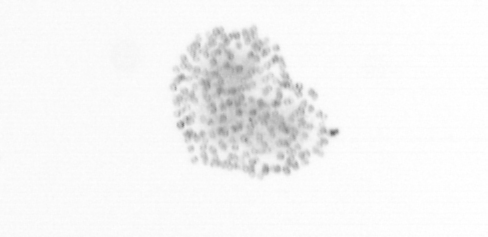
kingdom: Chromista
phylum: Ochrophyta
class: Bacillariophyceae
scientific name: Bacillariophyceae
